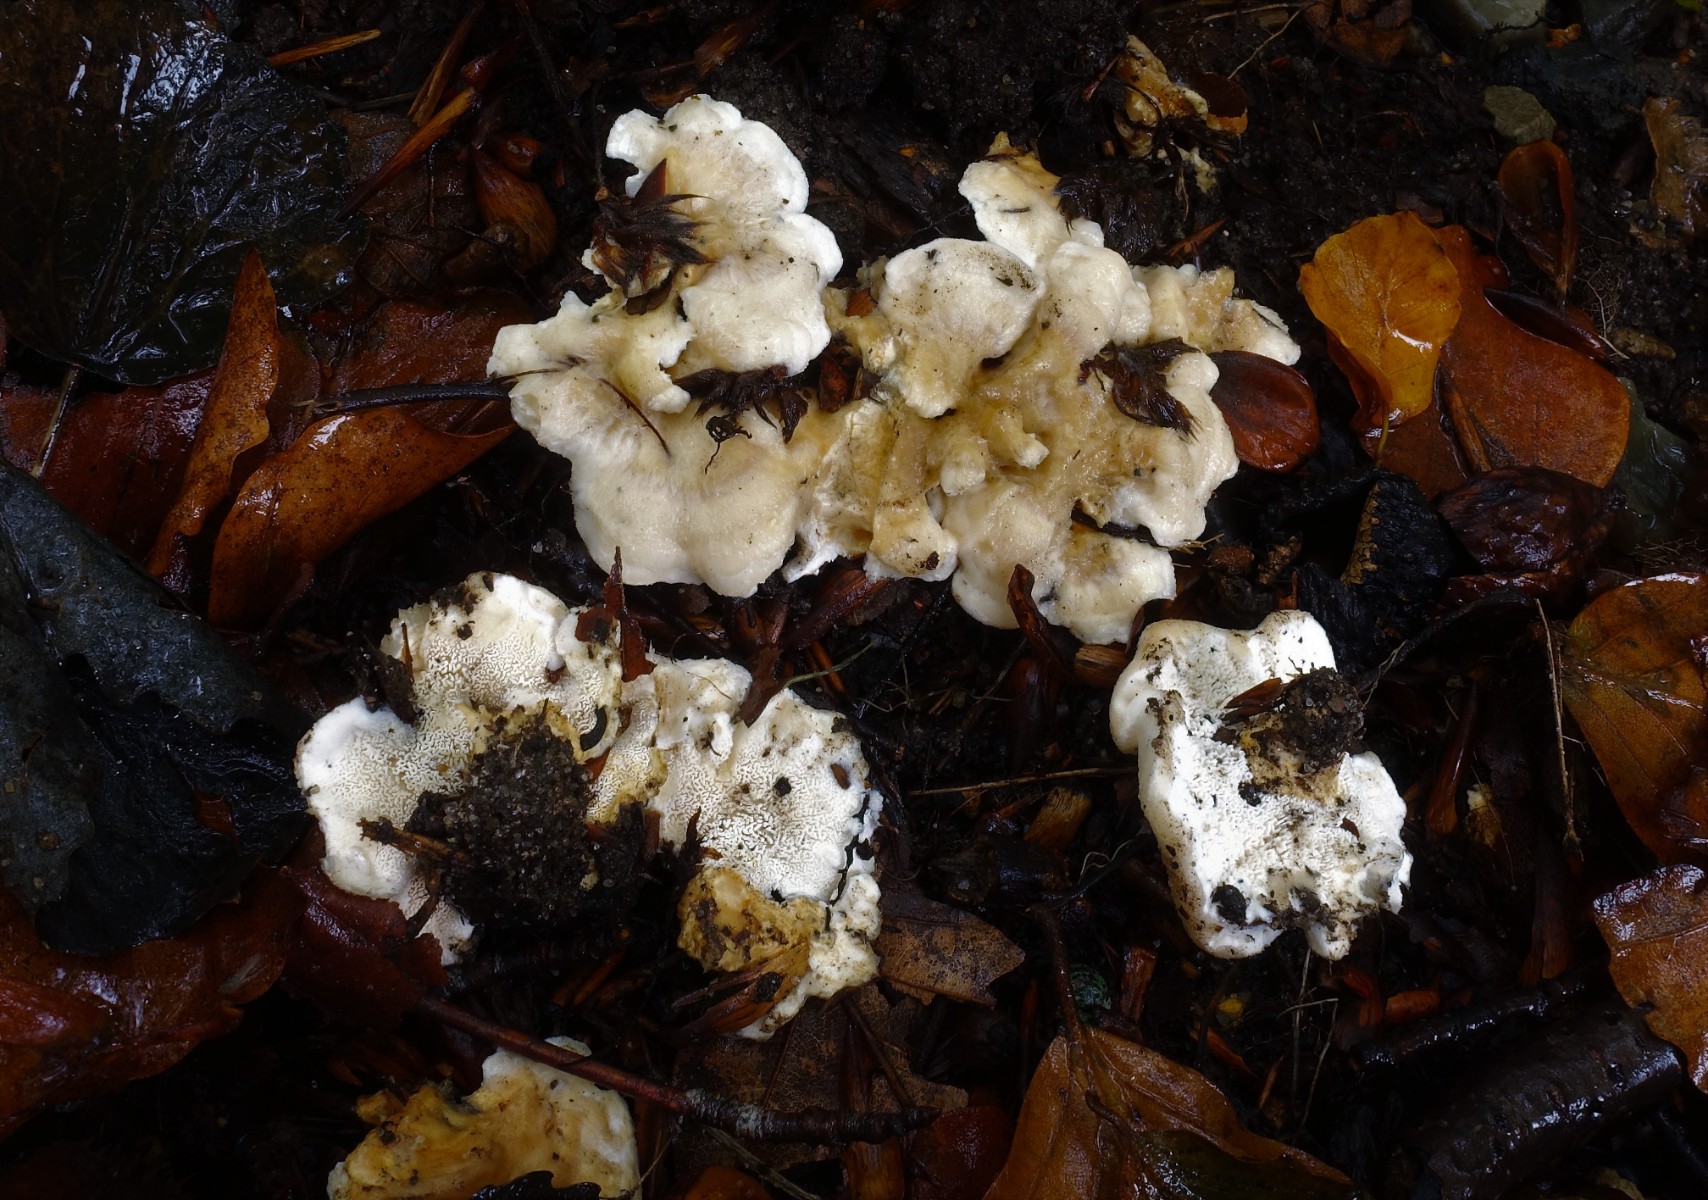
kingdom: Fungi
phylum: Basidiomycota
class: Agaricomycetes
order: Cantharellales
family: Hydnaceae
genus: Sistotrema
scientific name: Sistotrema confluens
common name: stilket kroneskorpe
